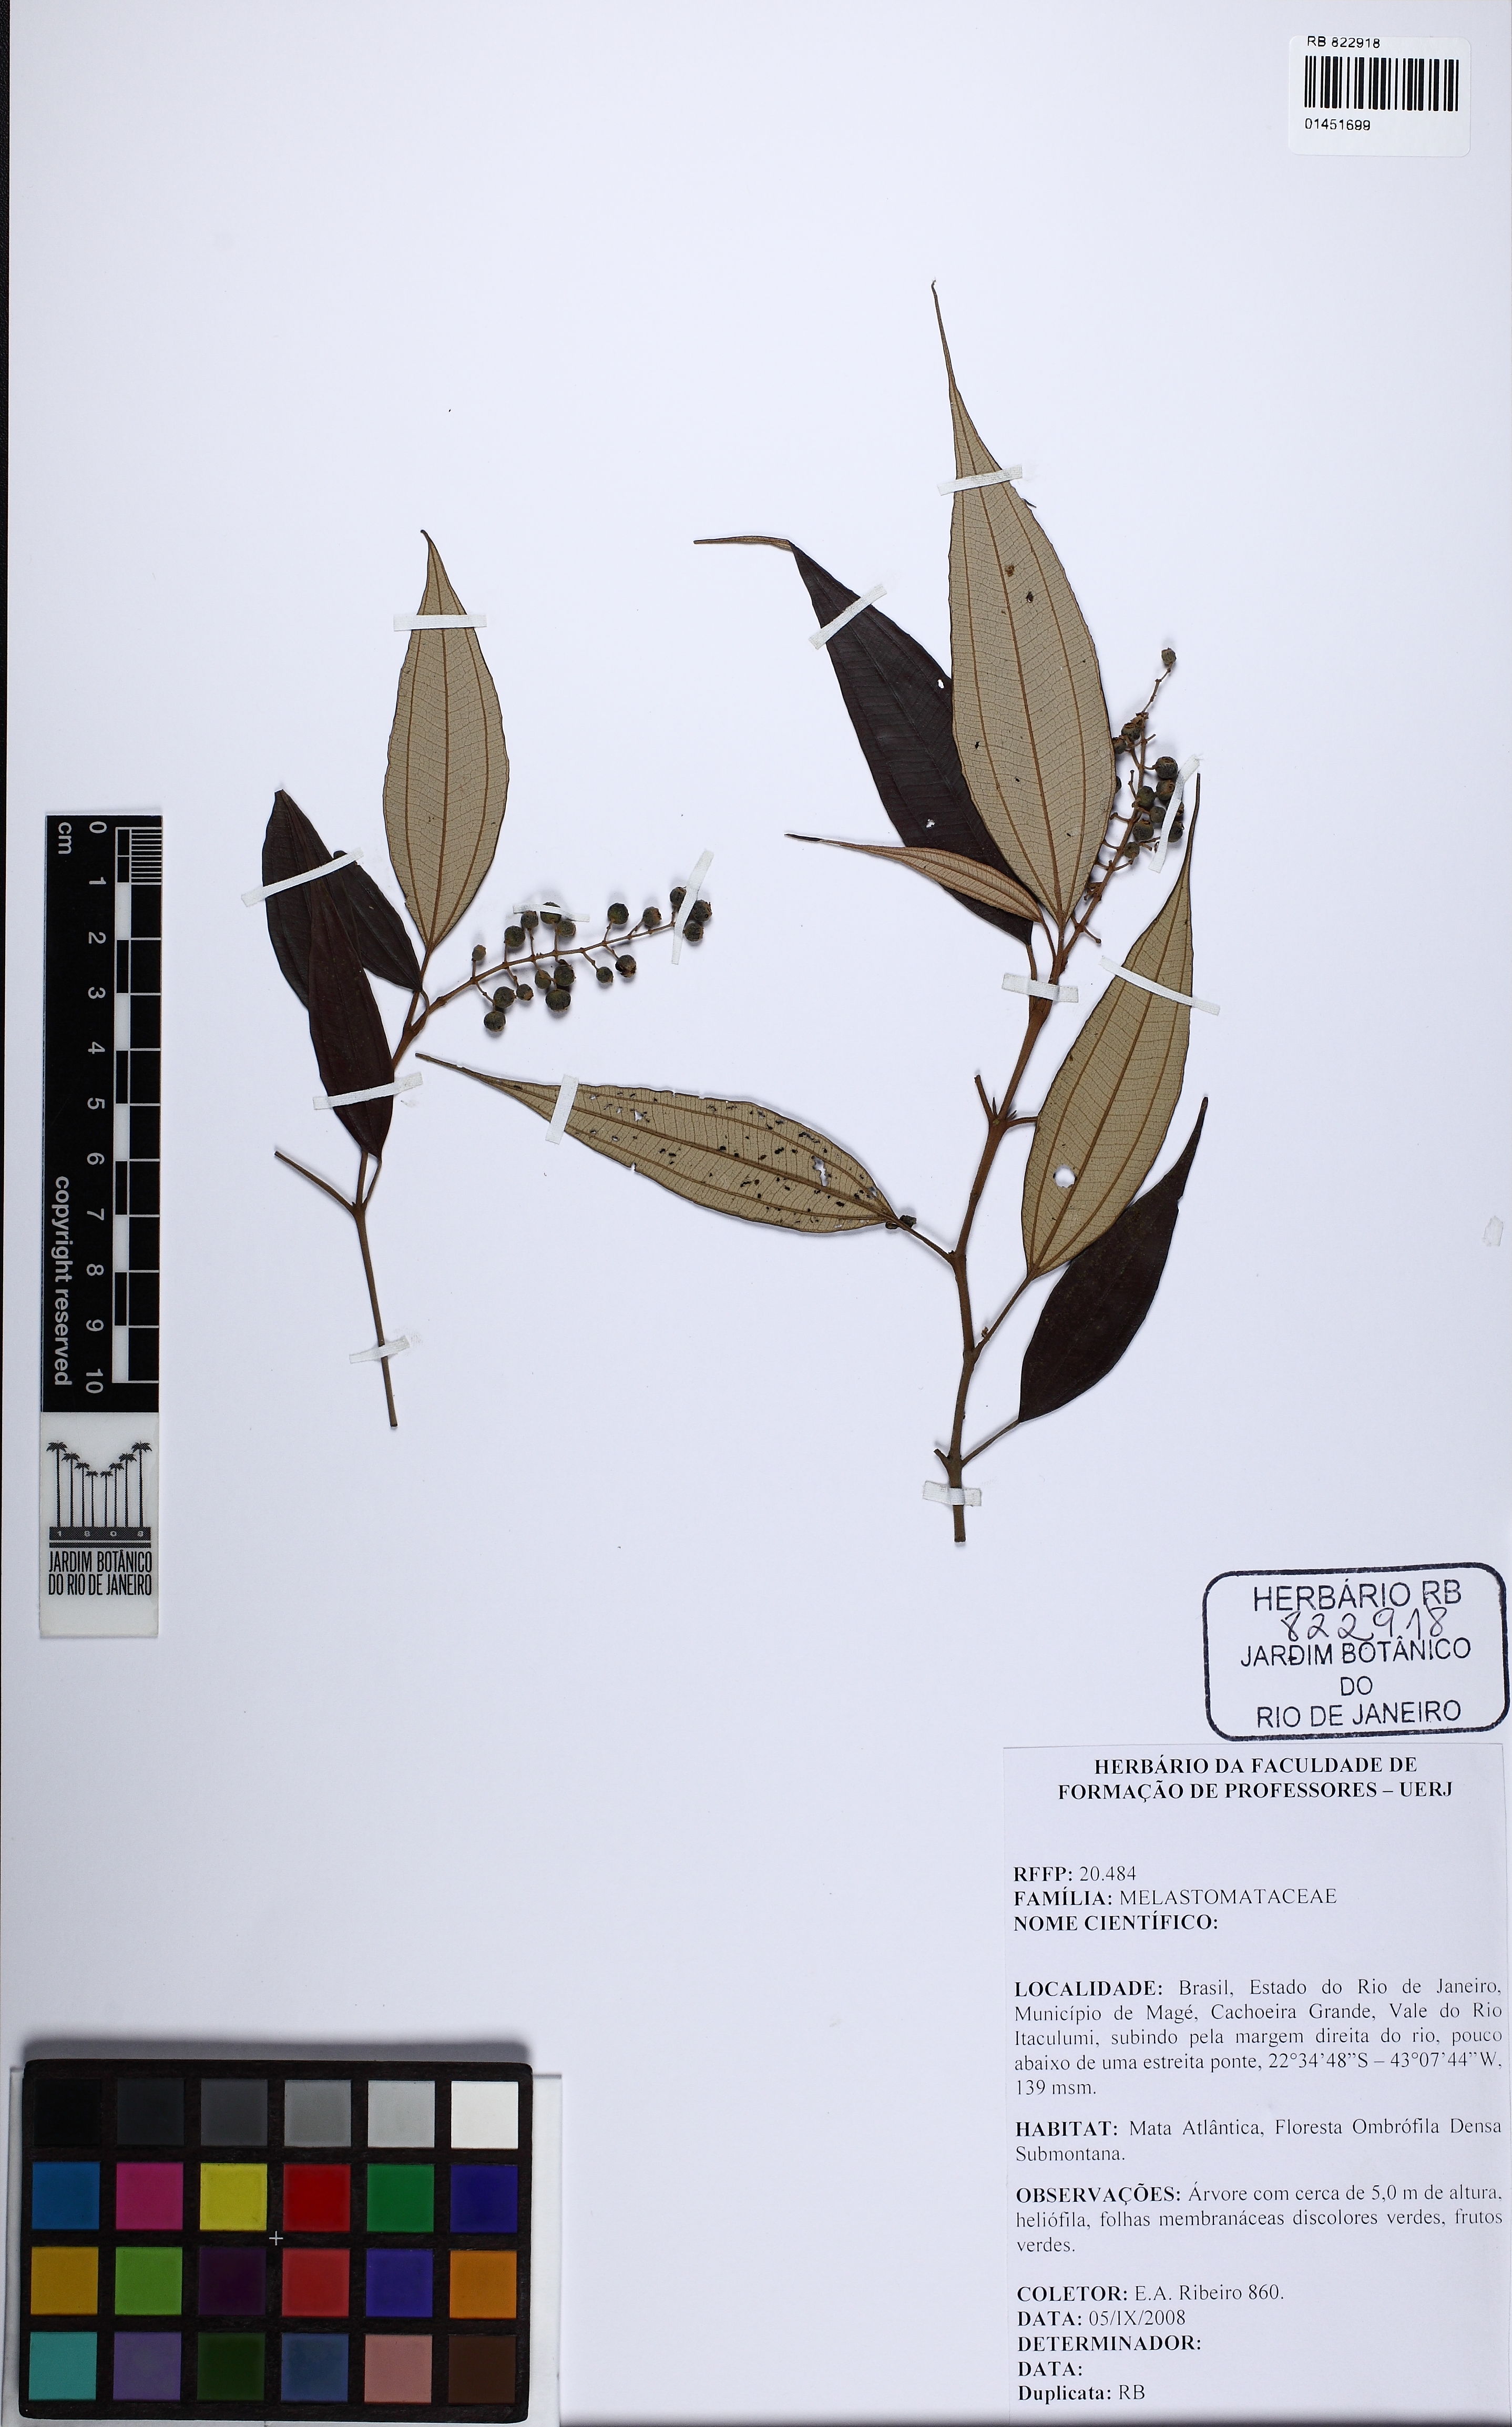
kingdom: Plantae
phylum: Tracheophyta
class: Magnoliopsida
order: Myrtales
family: Melastomataceae
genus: Miconia
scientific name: Miconia setosociliata
